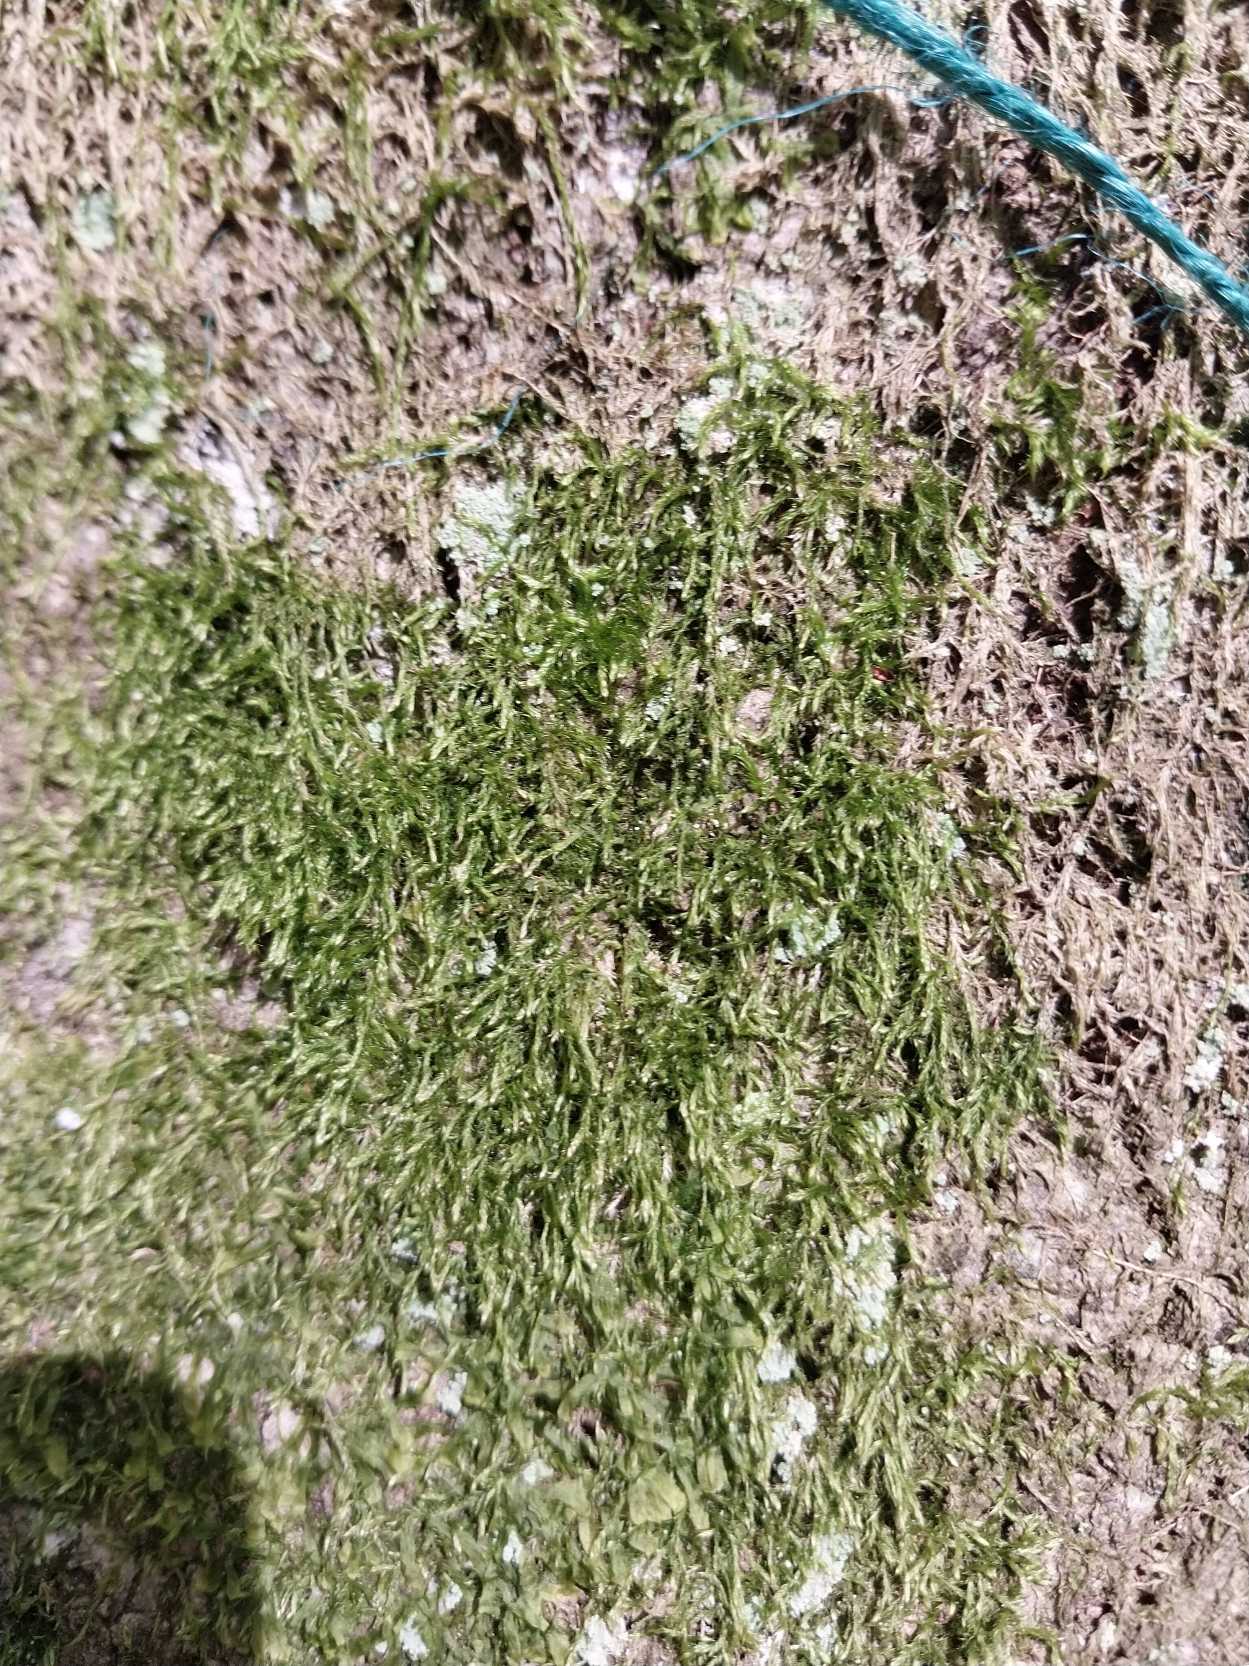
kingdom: Plantae
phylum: Bryophyta
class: Bryopsida
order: Hypnales
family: Hypnaceae
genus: Hypnum
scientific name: Hypnum
